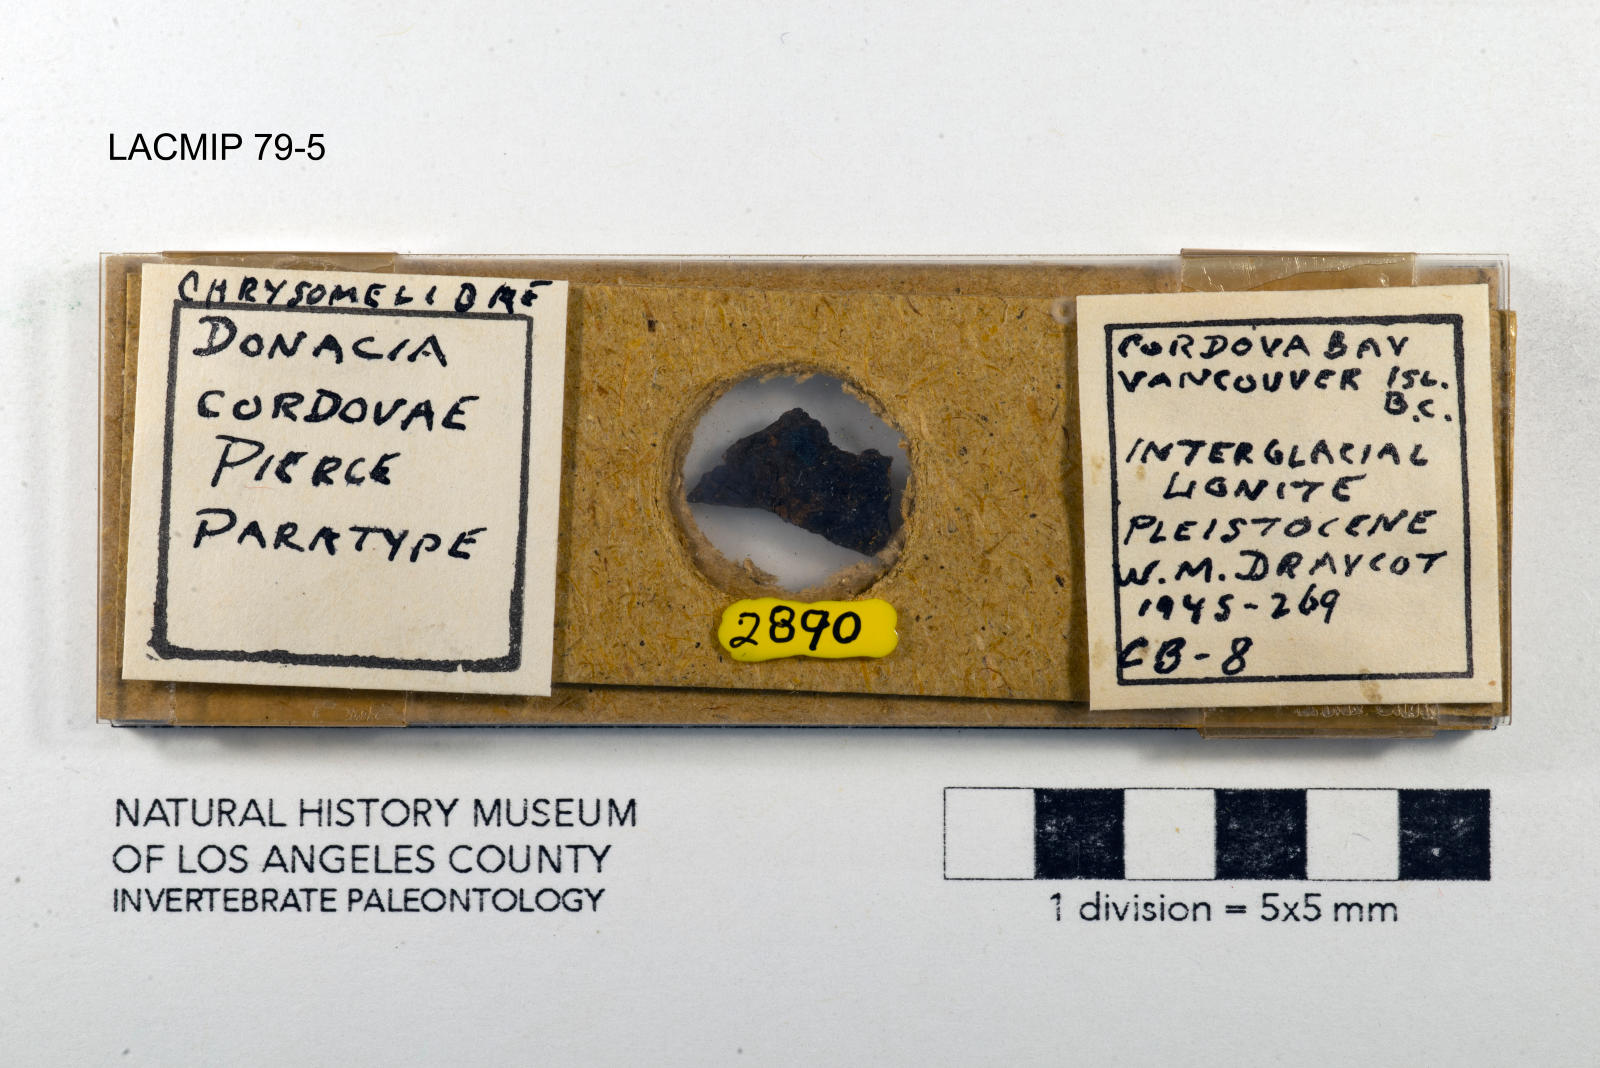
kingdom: Animalia
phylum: Arthropoda
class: Insecta
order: Coleoptera
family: Chrysomelidae
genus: Donacia
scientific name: Donacia cordovae
